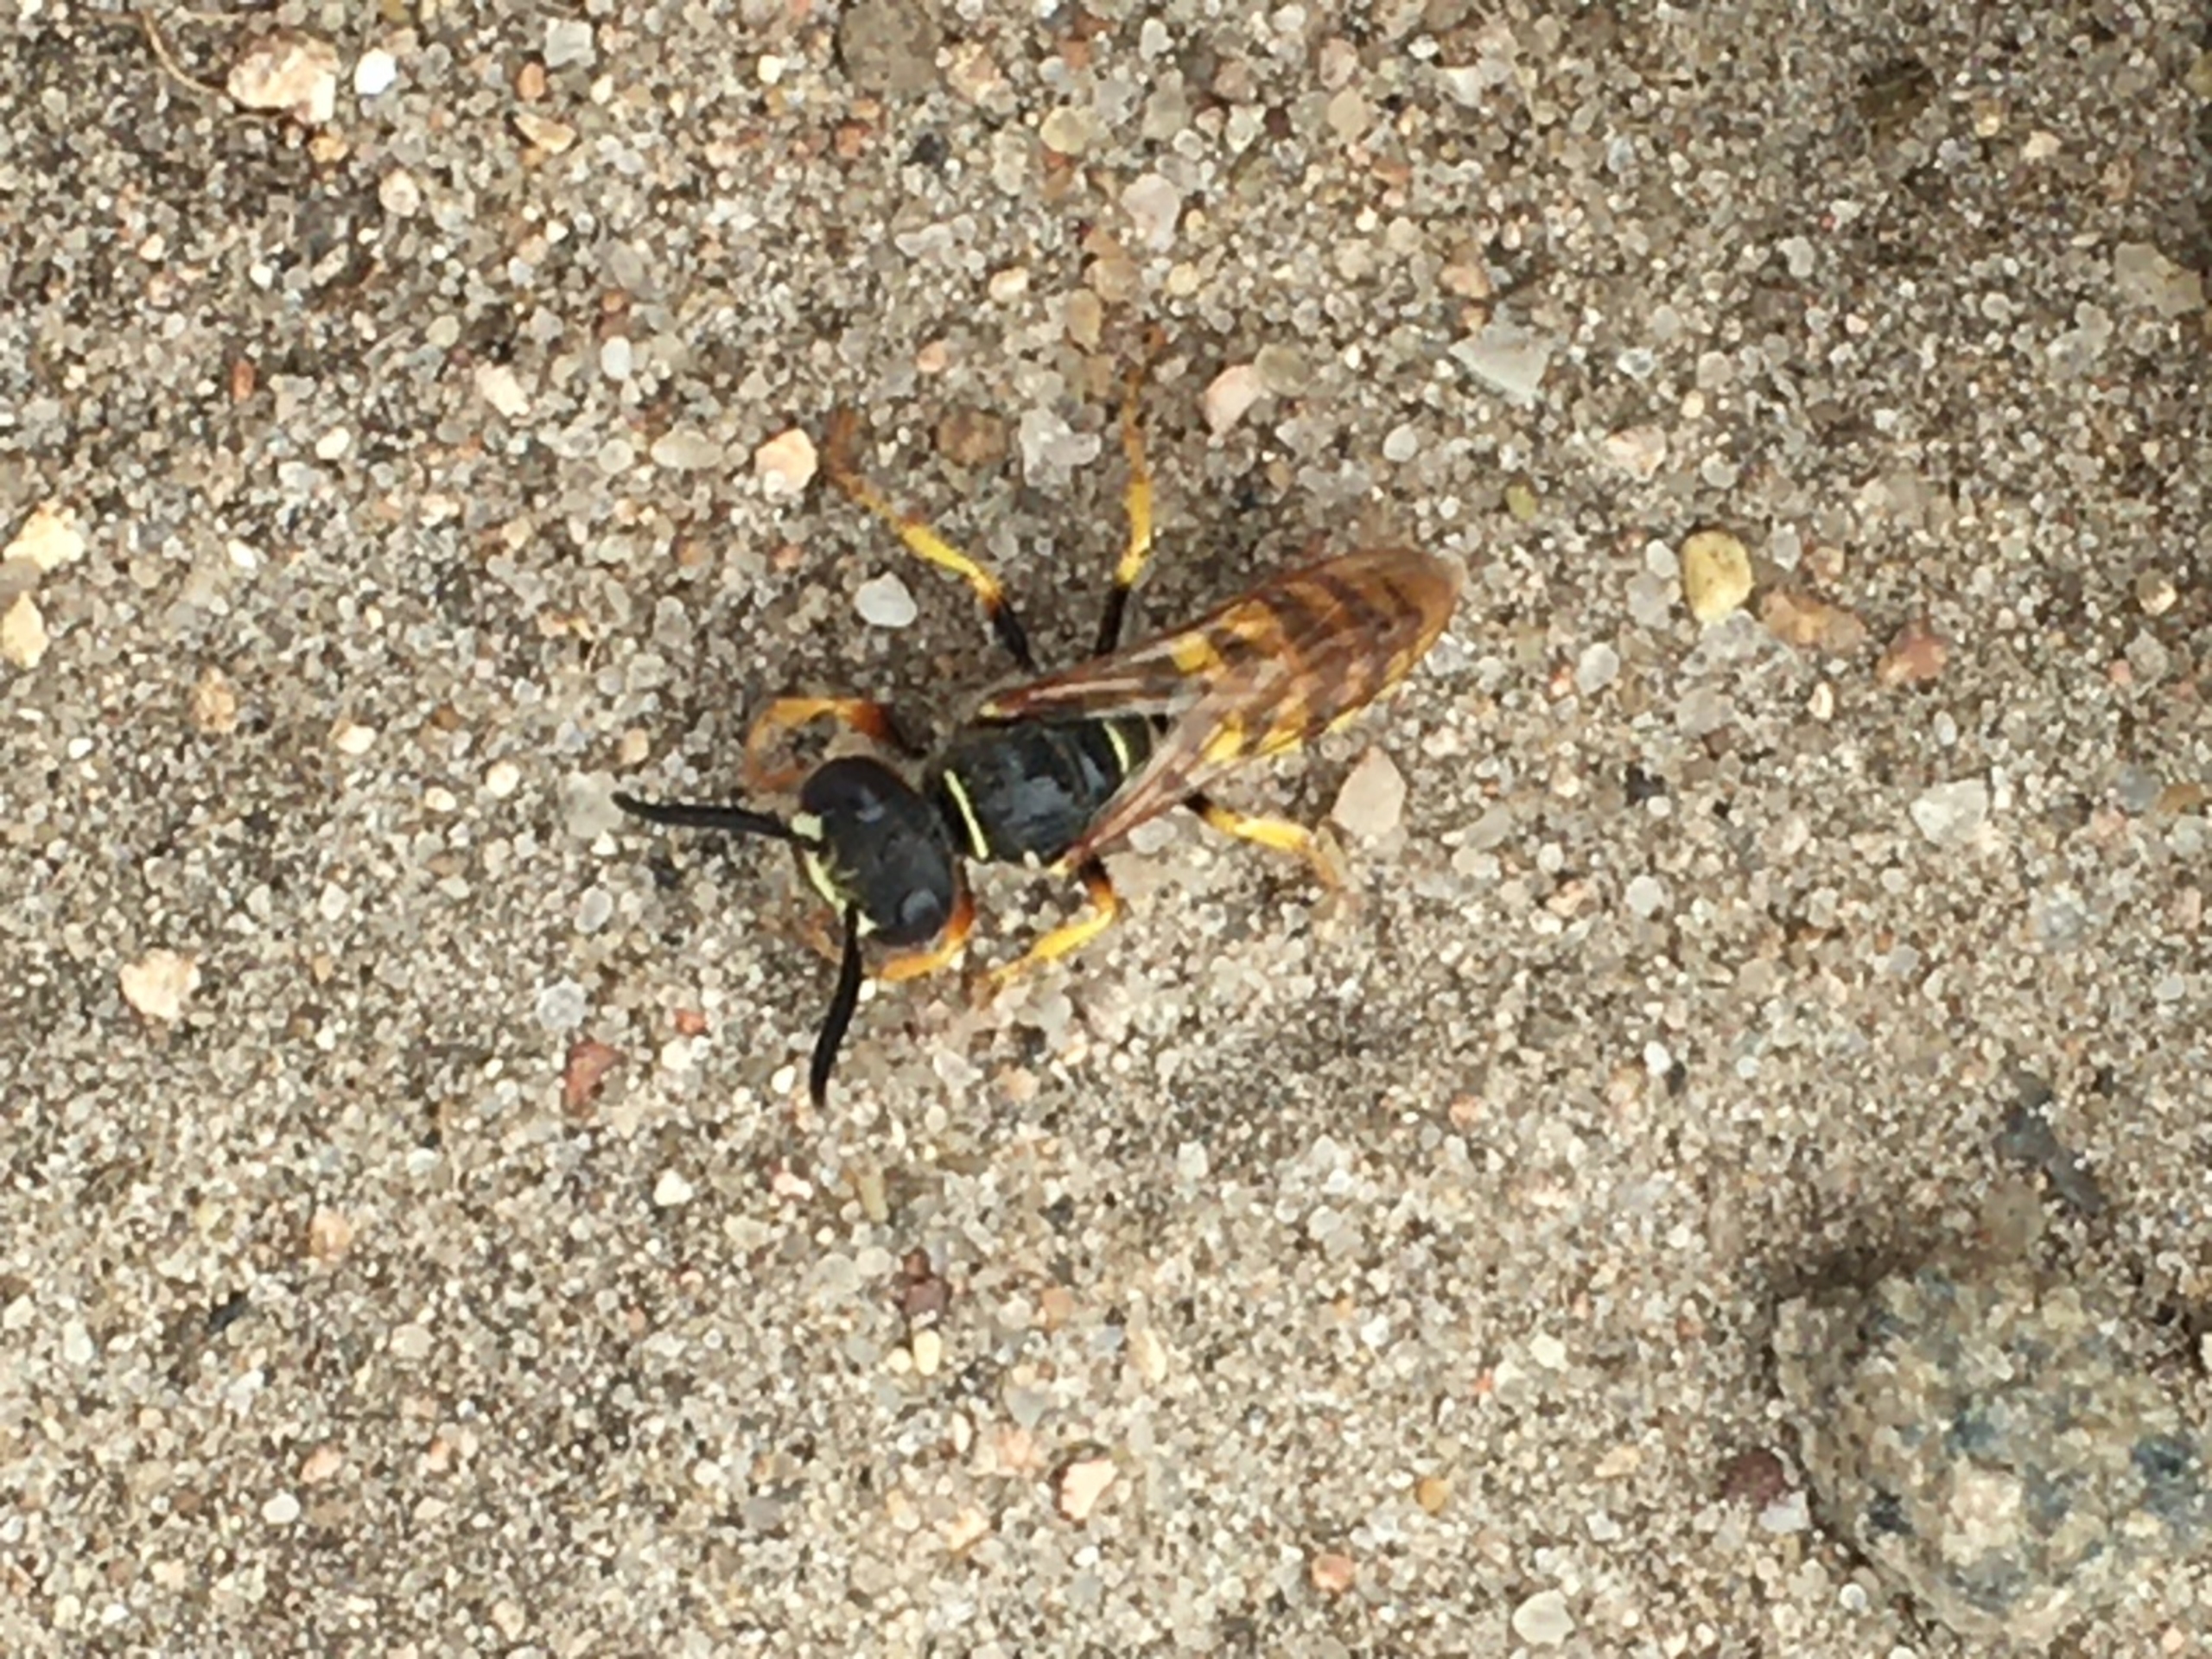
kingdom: Animalia
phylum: Arthropoda
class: Insecta
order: Hymenoptera
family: Crabronidae
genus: Philanthus
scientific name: Philanthus triangulum
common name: Biulv
